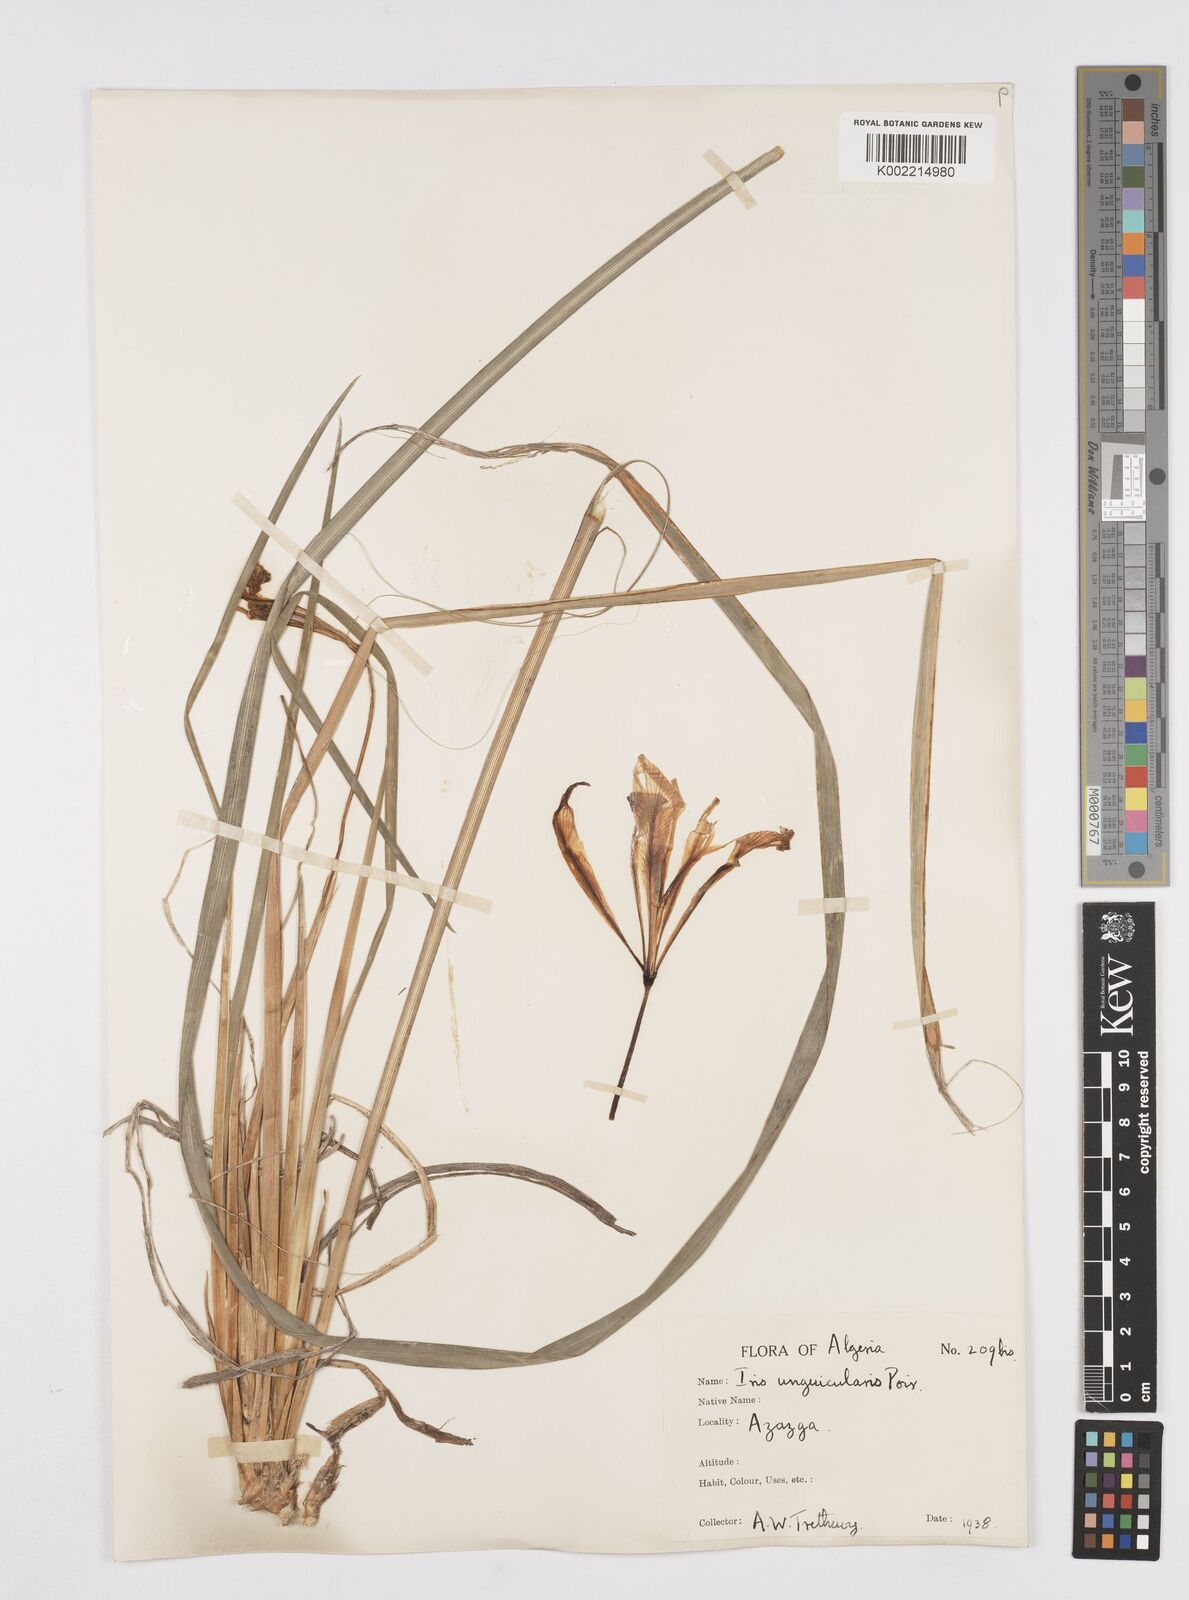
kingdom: Plantae
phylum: Tracheophyta
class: Liliopsida
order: Asparagales
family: Iridaceae
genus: Iris
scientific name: Iris unguicularis
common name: Algerian iris
